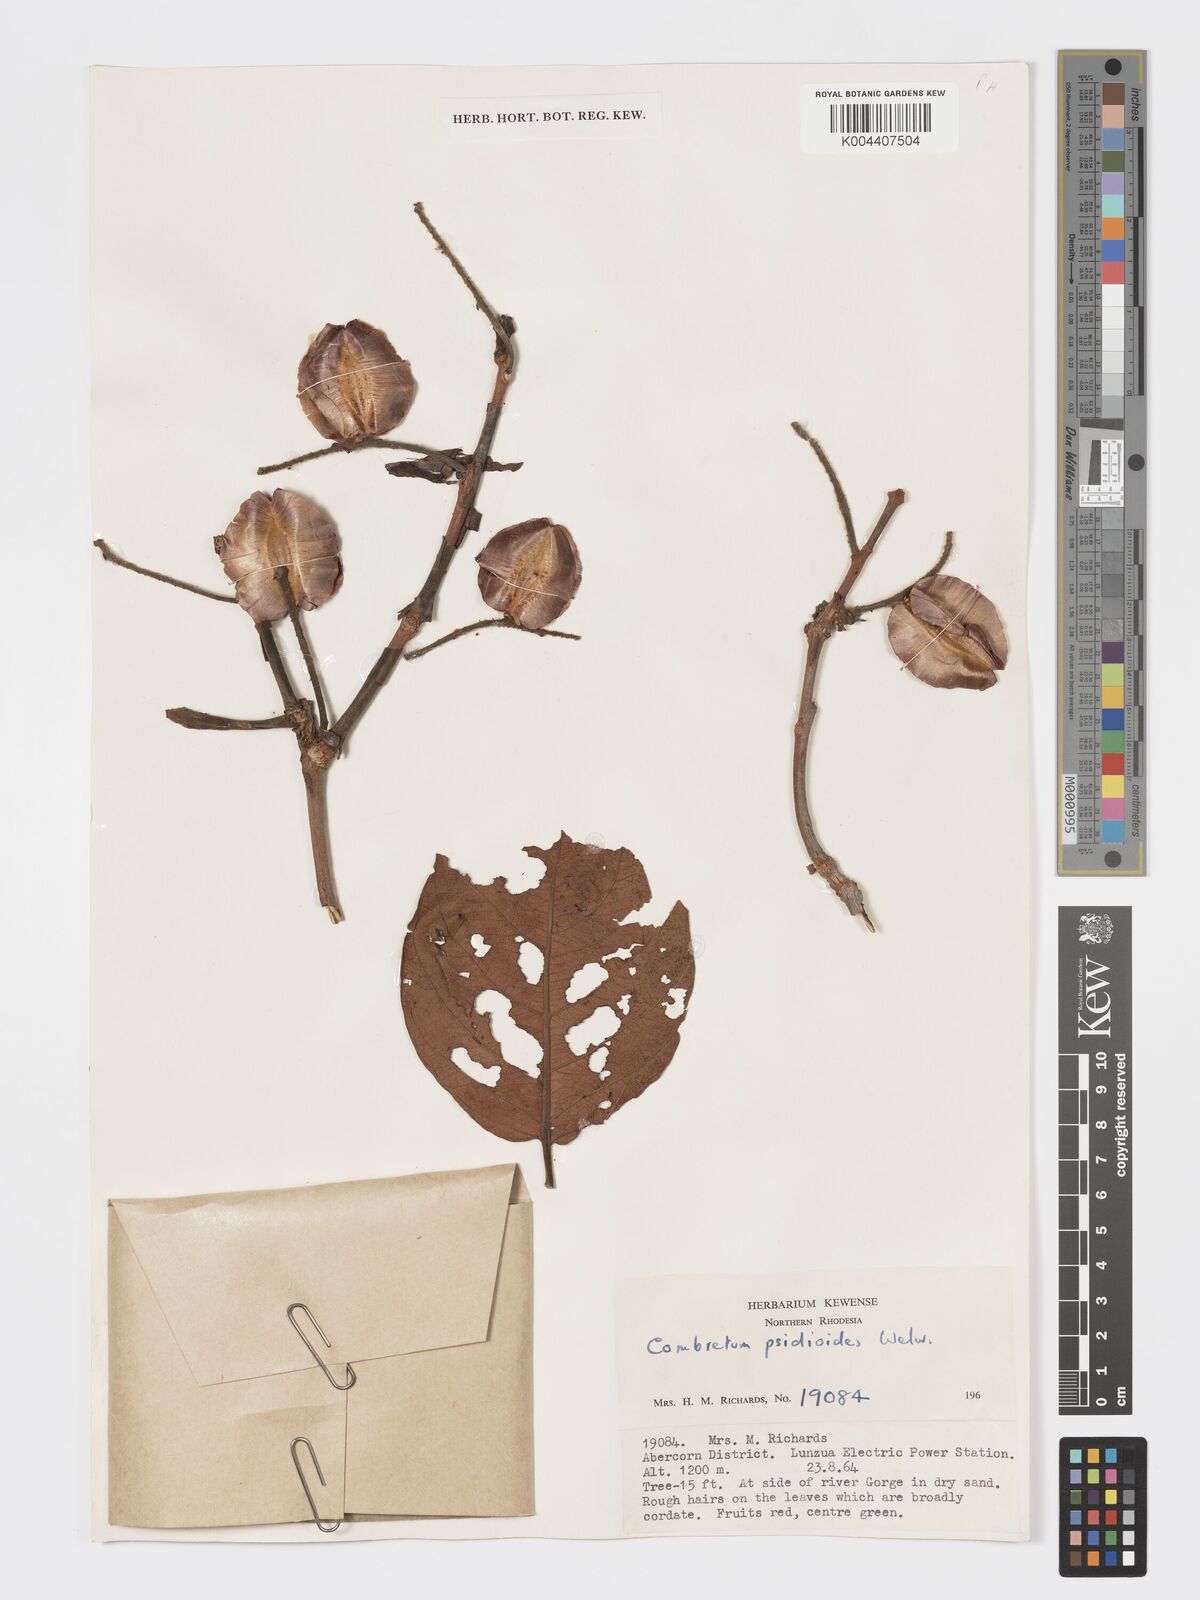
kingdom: Plantae
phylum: Tracheophyta
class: Magnoliopsida
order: Myrtales
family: Combretaceae
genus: Combretum
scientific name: Combretum psidioides
